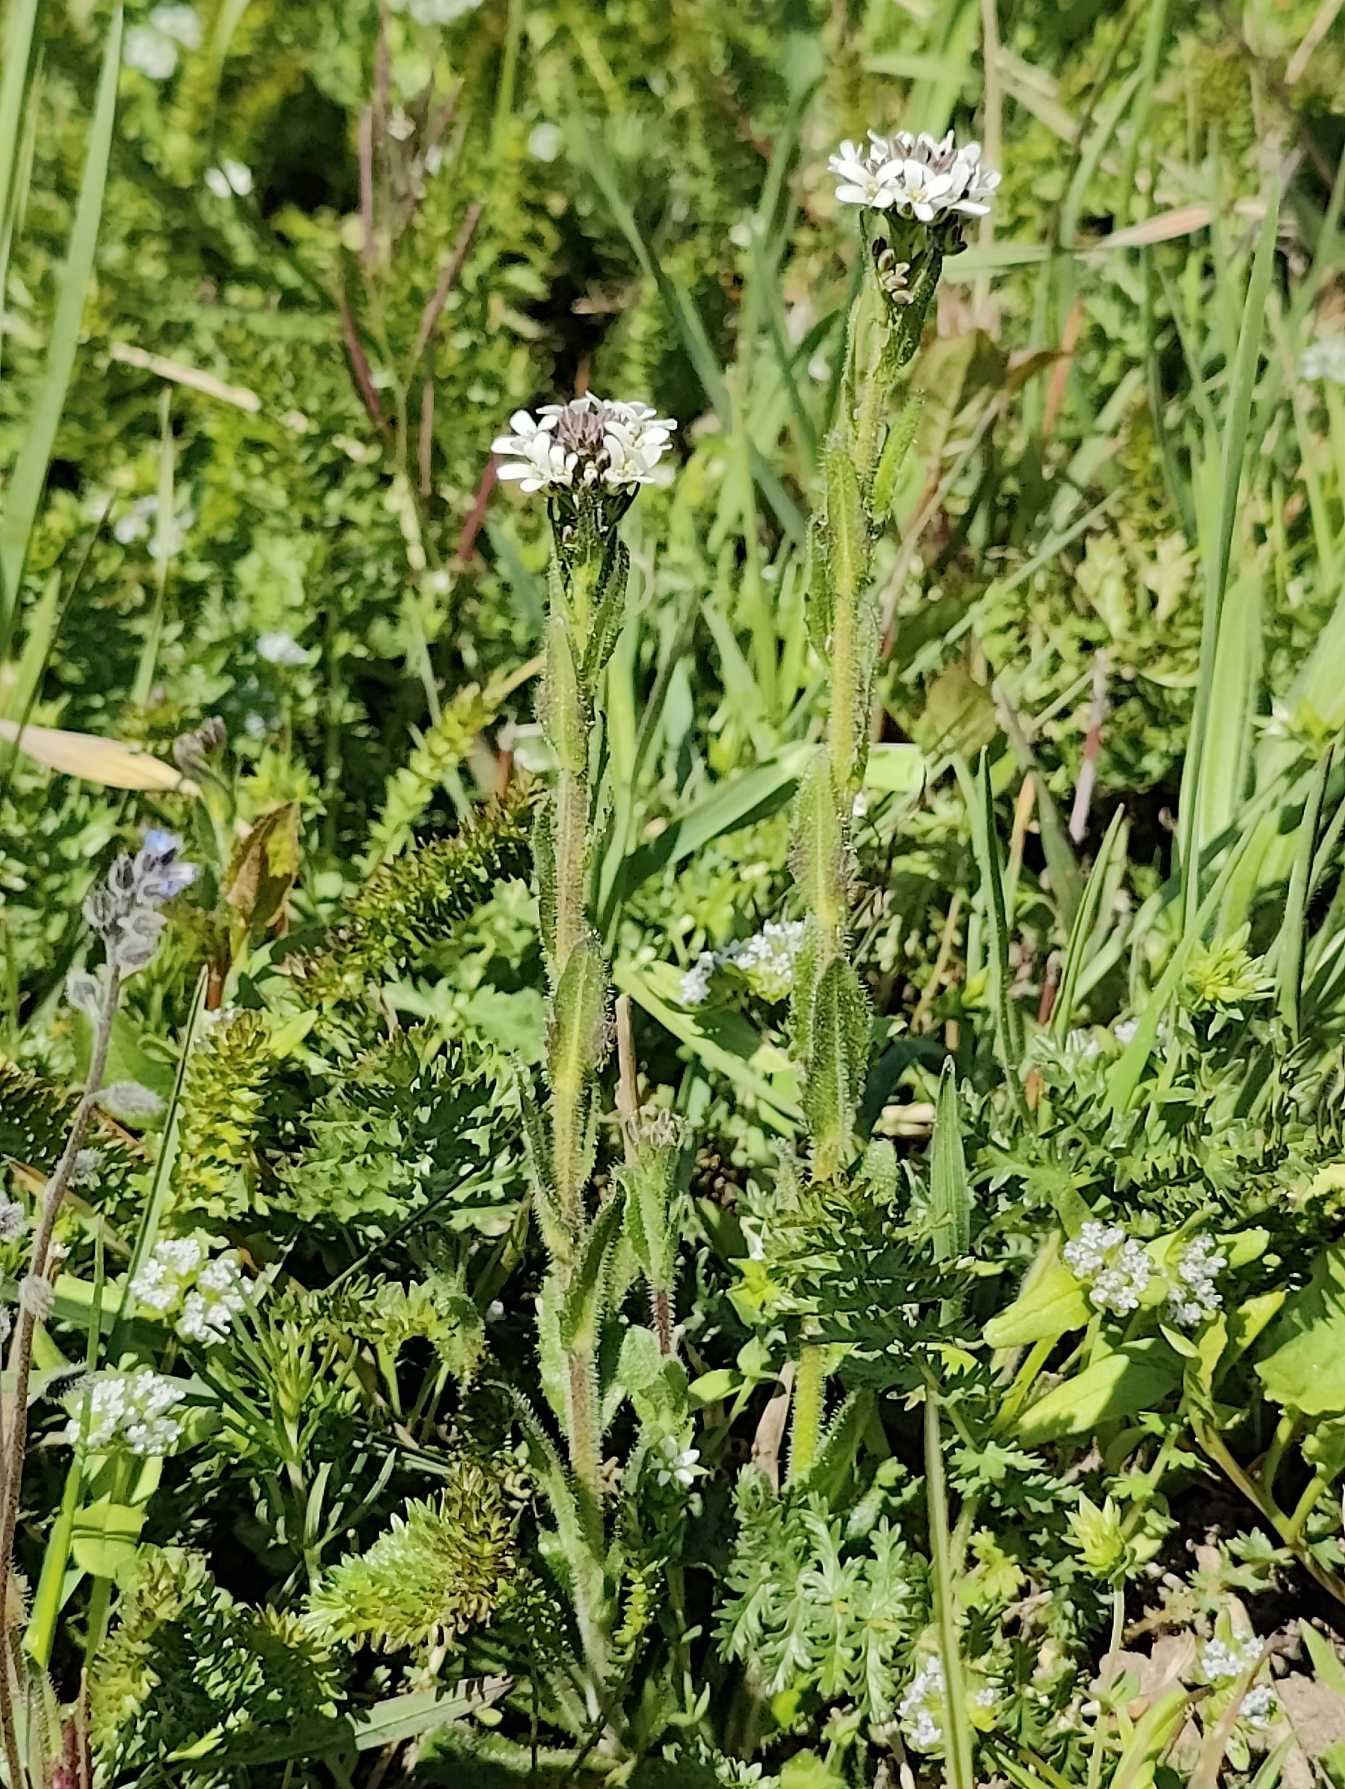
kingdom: Plantae
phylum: Tracheophyta
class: Magnoliopsida
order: Brassicales
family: Brassicaceae
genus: Arabis
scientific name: Arabis hirsuta
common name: Stivhåret kalkkarse
